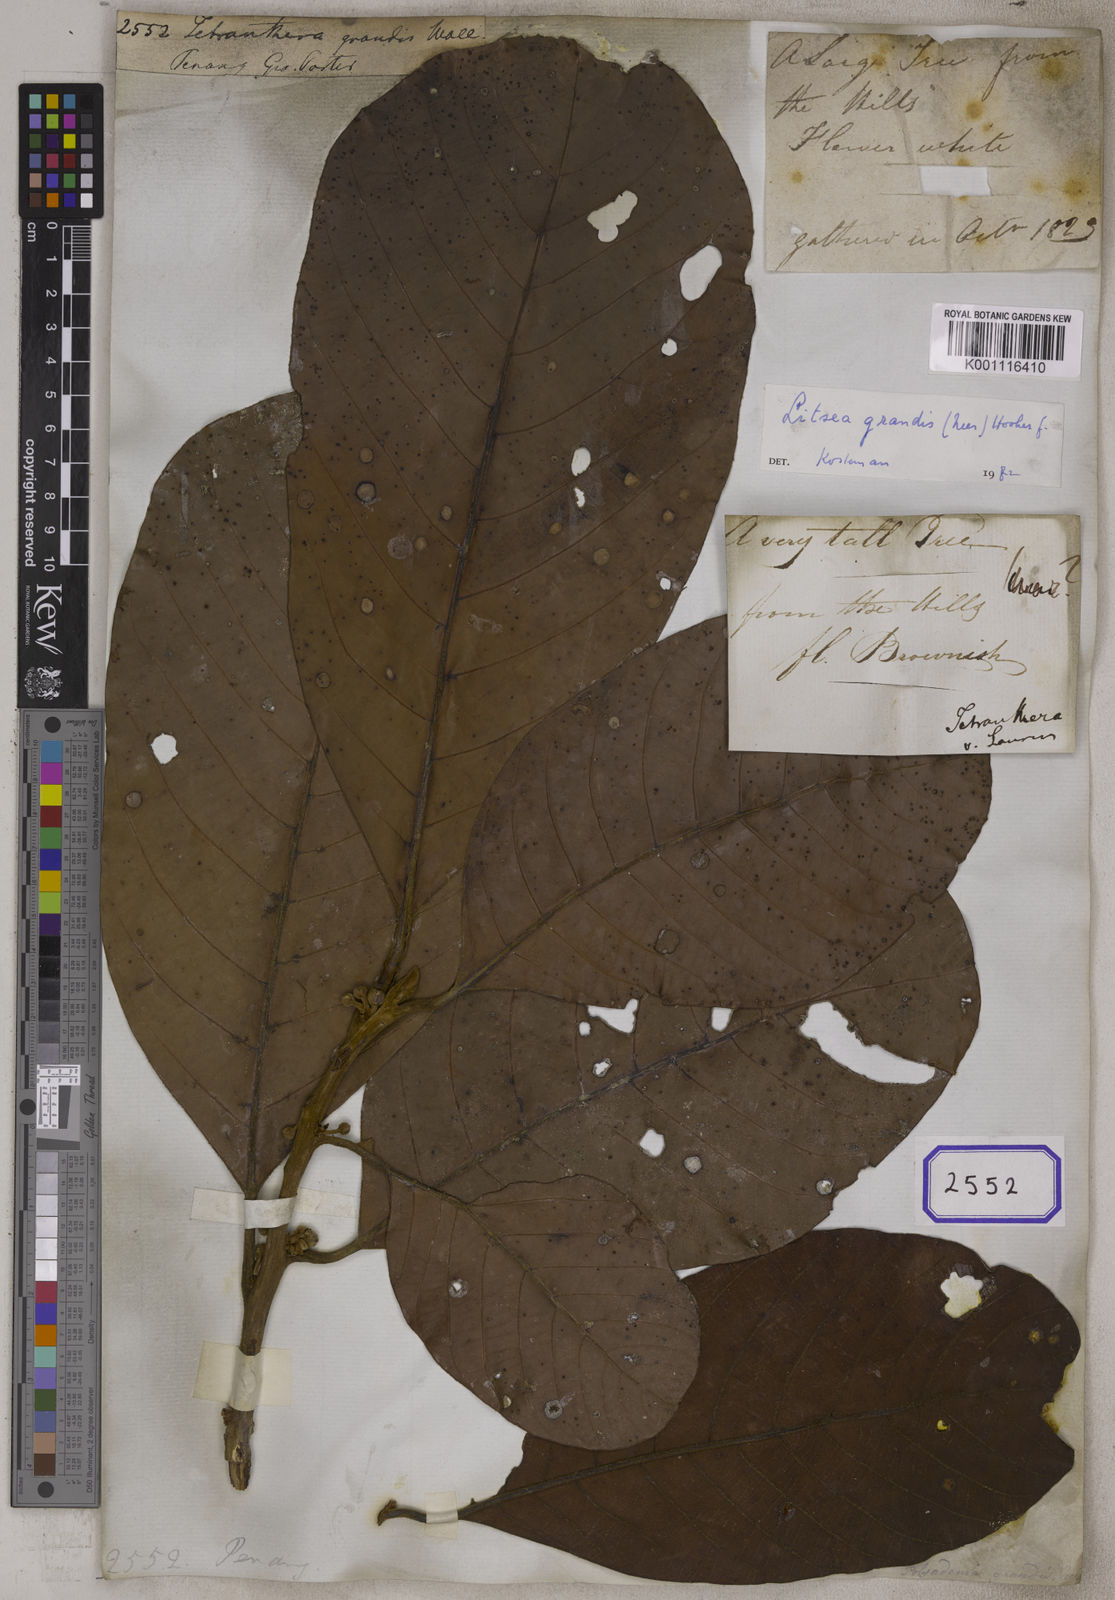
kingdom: Plantae
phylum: Tracheophyta
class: Magnoliopsida
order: Laurales
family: Lauraceae
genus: Litsea
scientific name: Litsea
